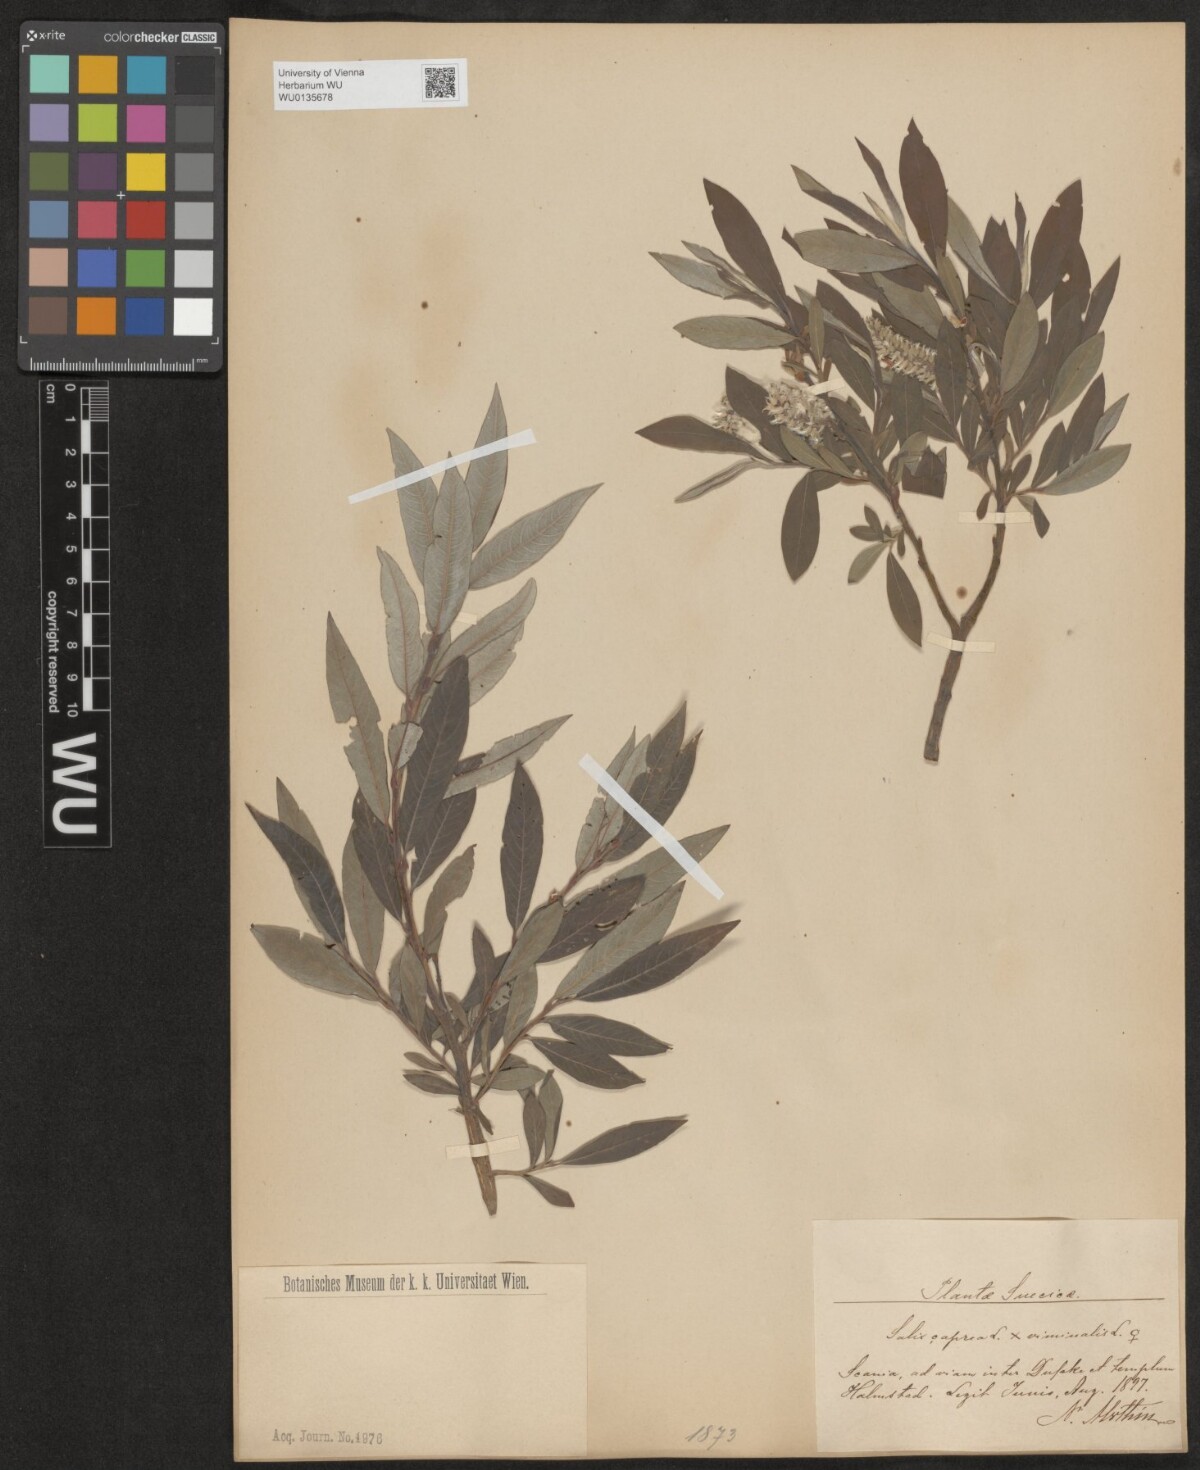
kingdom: Plantae
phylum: Tracheophyta
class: Magnoliopsida
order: Malpighiales
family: Salicaceae
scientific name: Salicaceae
